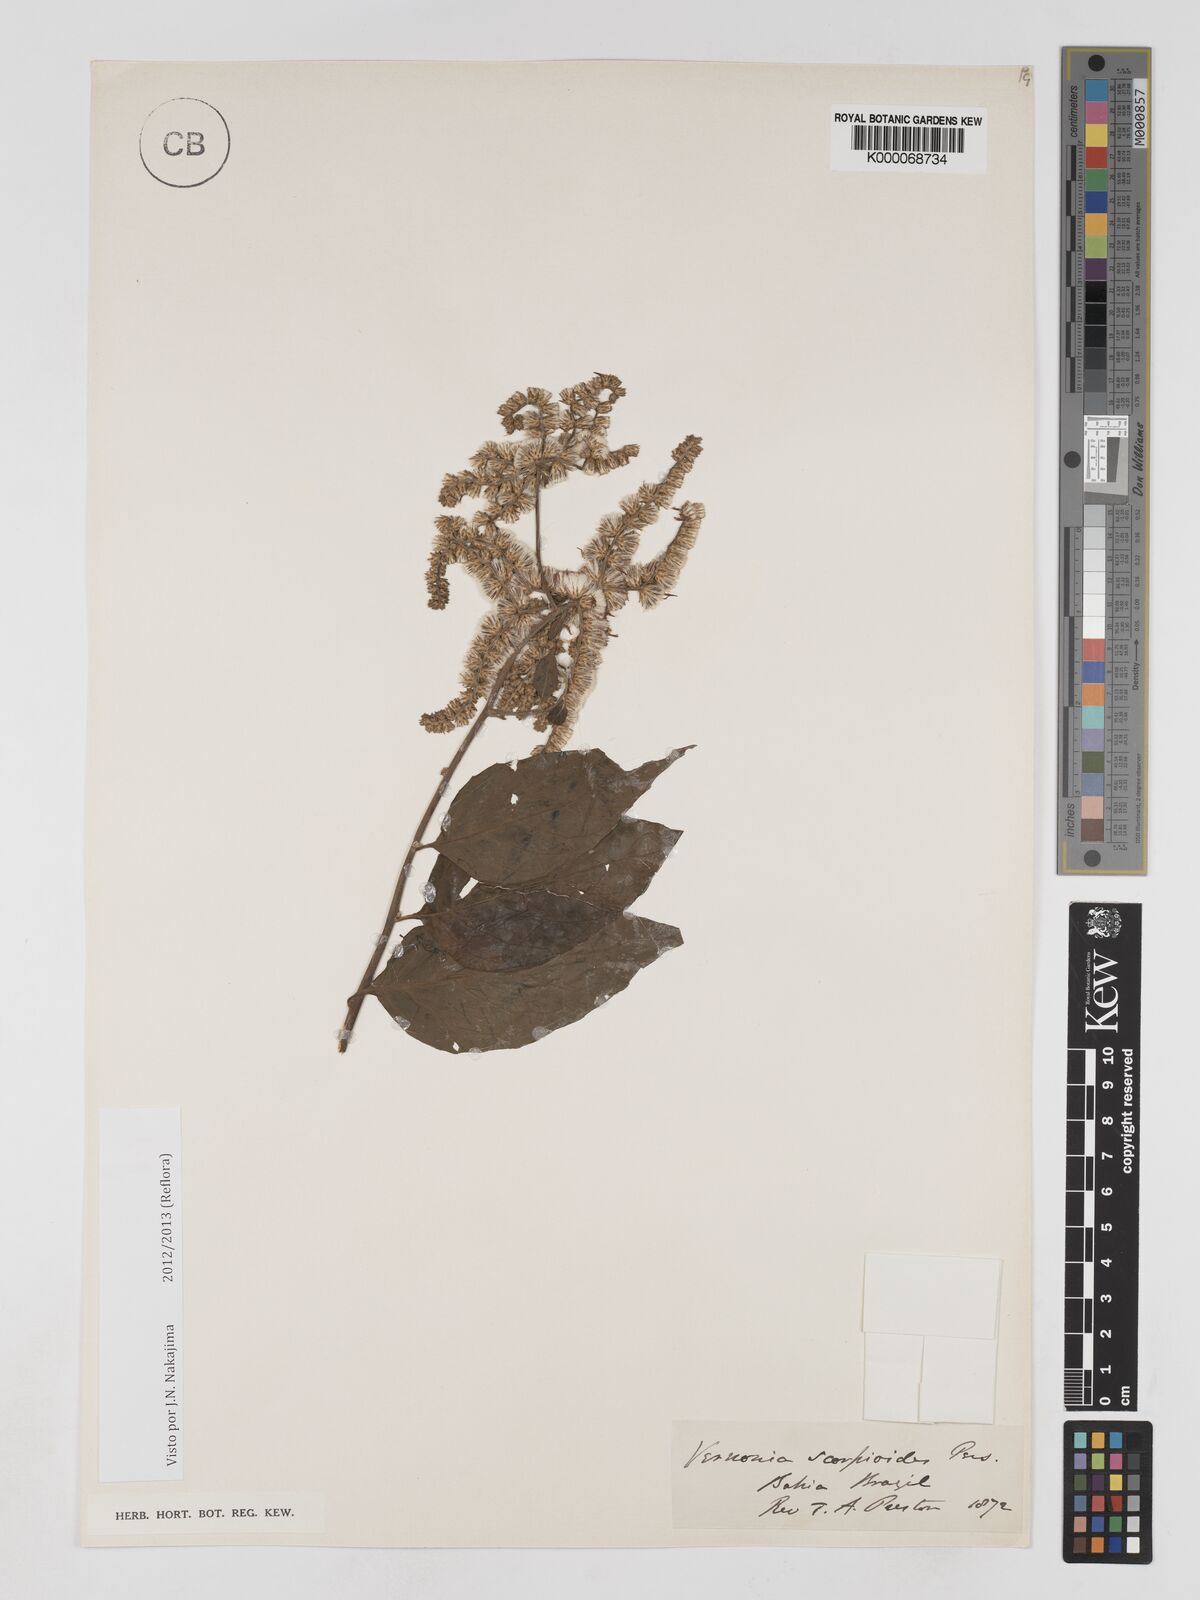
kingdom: Plantae
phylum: Tracheophyta
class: Magnoliopsida
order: Asterales
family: Asteraceae
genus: Cyrtocymura
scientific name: Cyrtocymura scorpioides
